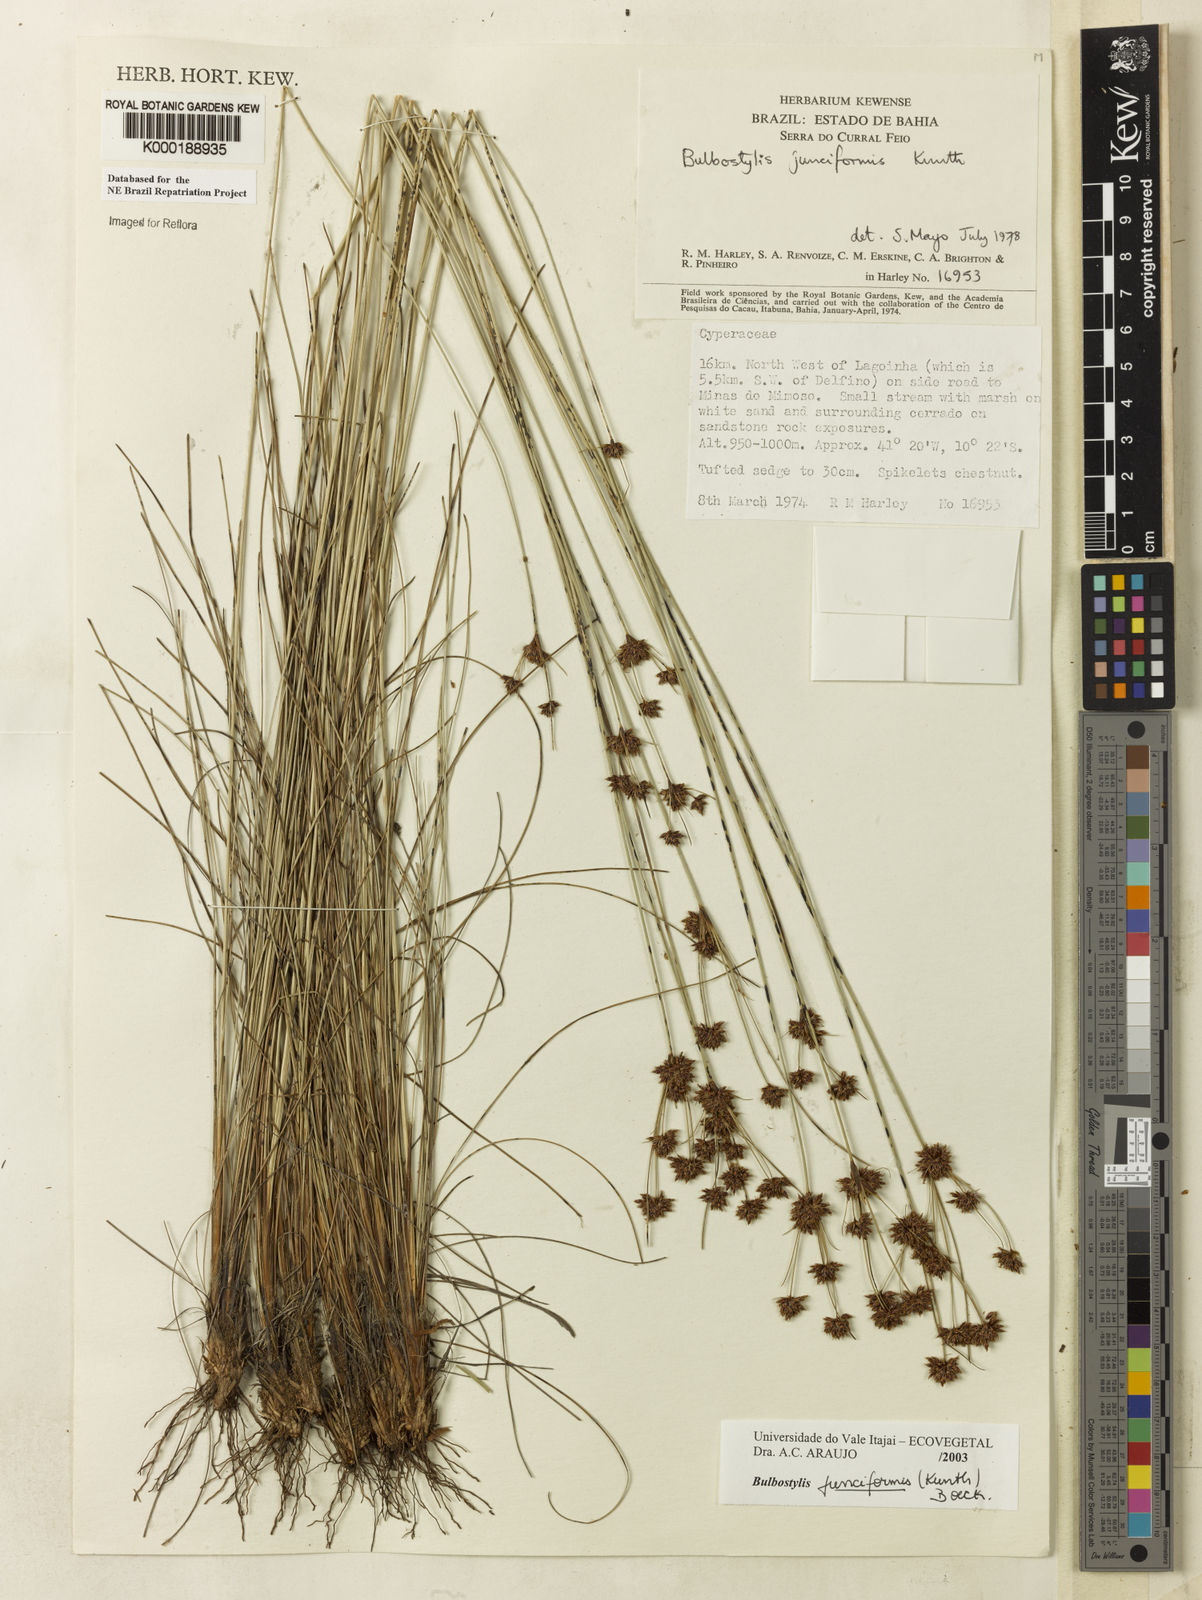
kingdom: Plantae
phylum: Tracheophyta
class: Liliopsida
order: Poales
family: Cyperaceae
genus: Bulbostylis
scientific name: Bulbostylis
